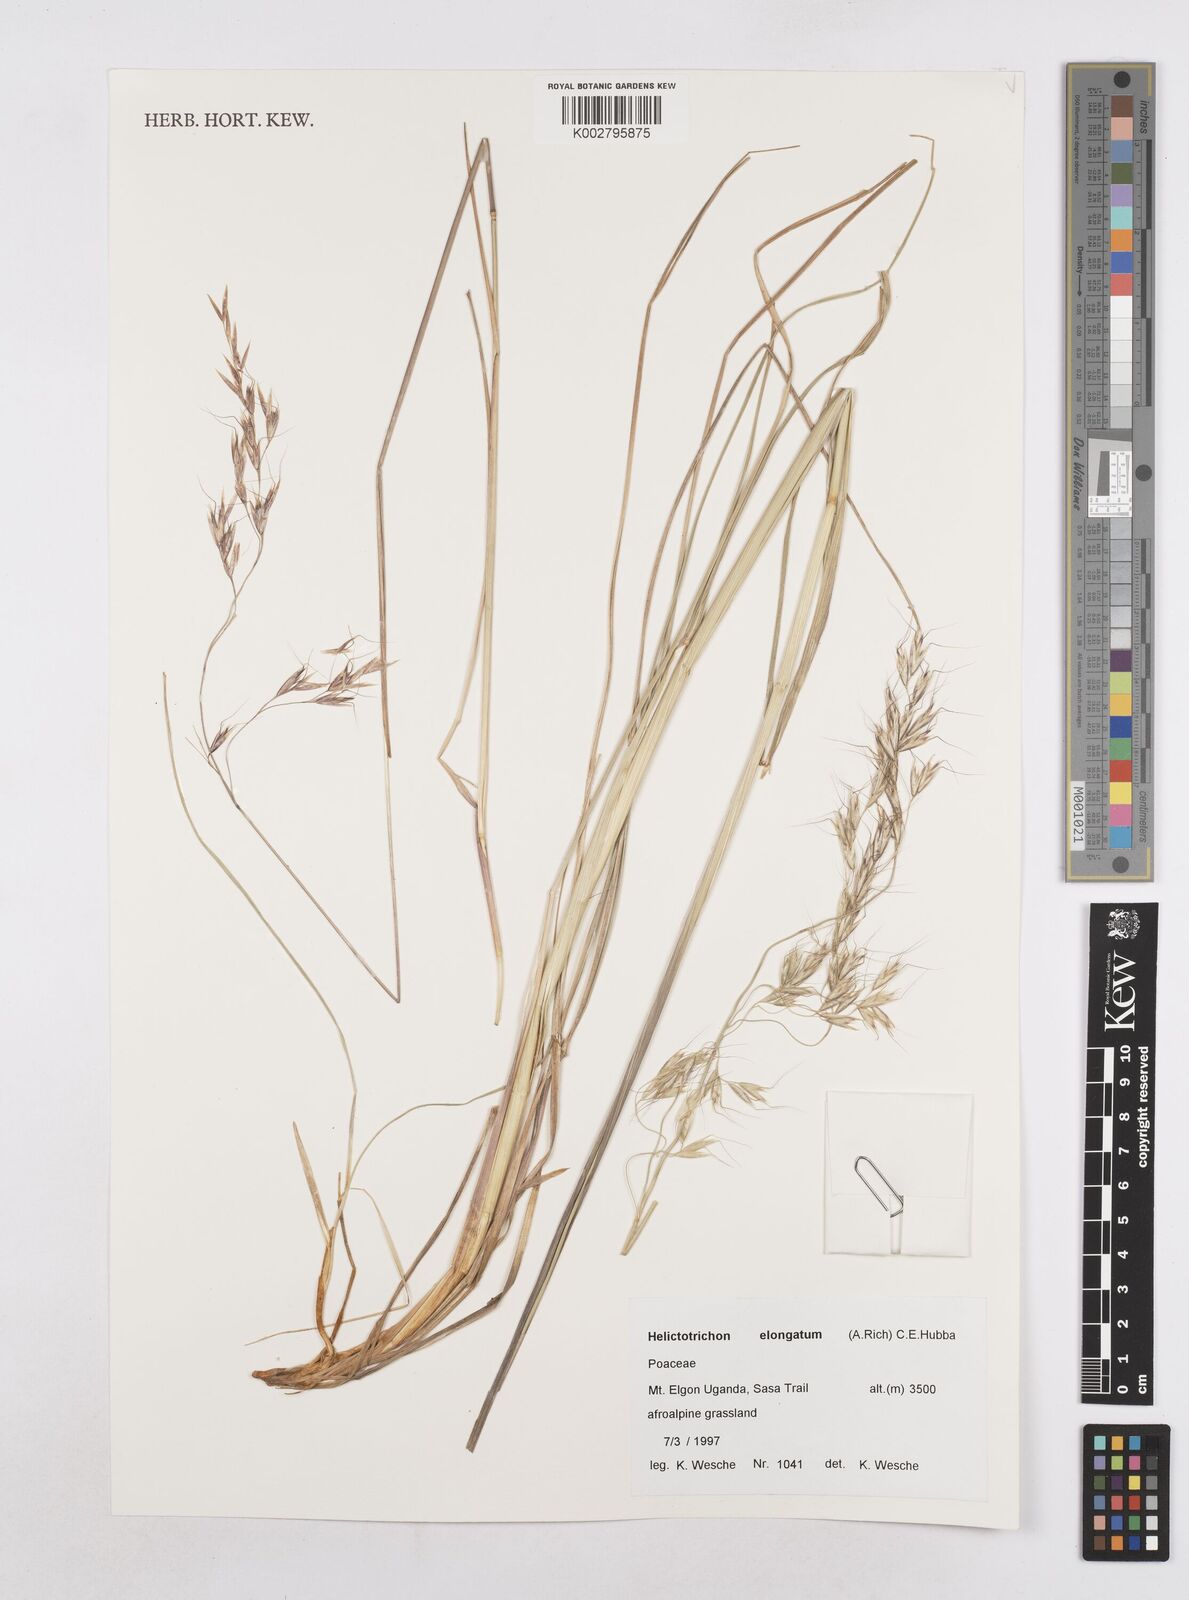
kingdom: Plantae
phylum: Tracheophyta
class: Liliopsida
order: Poales
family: Poaceae
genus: Trisetopsis
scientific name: Trisetopsis elongata
